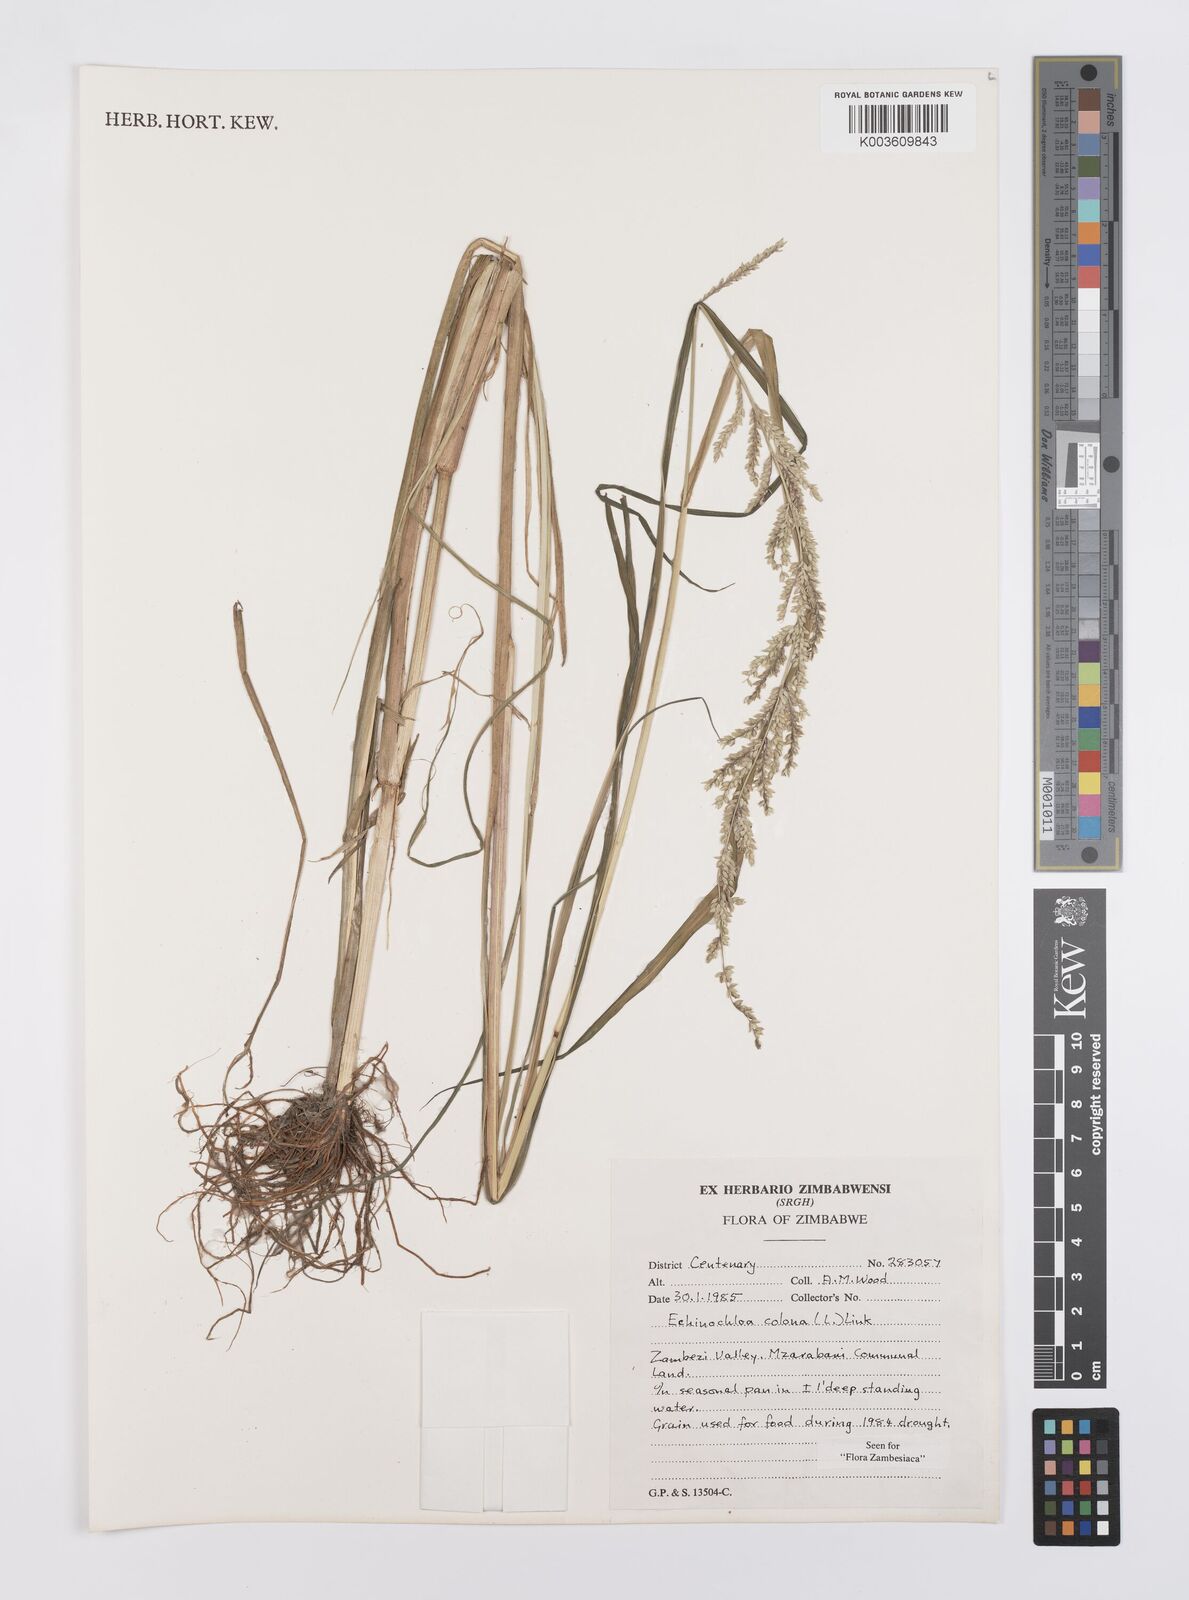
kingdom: Plantae
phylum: Tracheophyta
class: Liliopsida
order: Poales
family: Poaceae
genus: Echinochloa
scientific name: Echinochloa colonum
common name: Jungle rice
